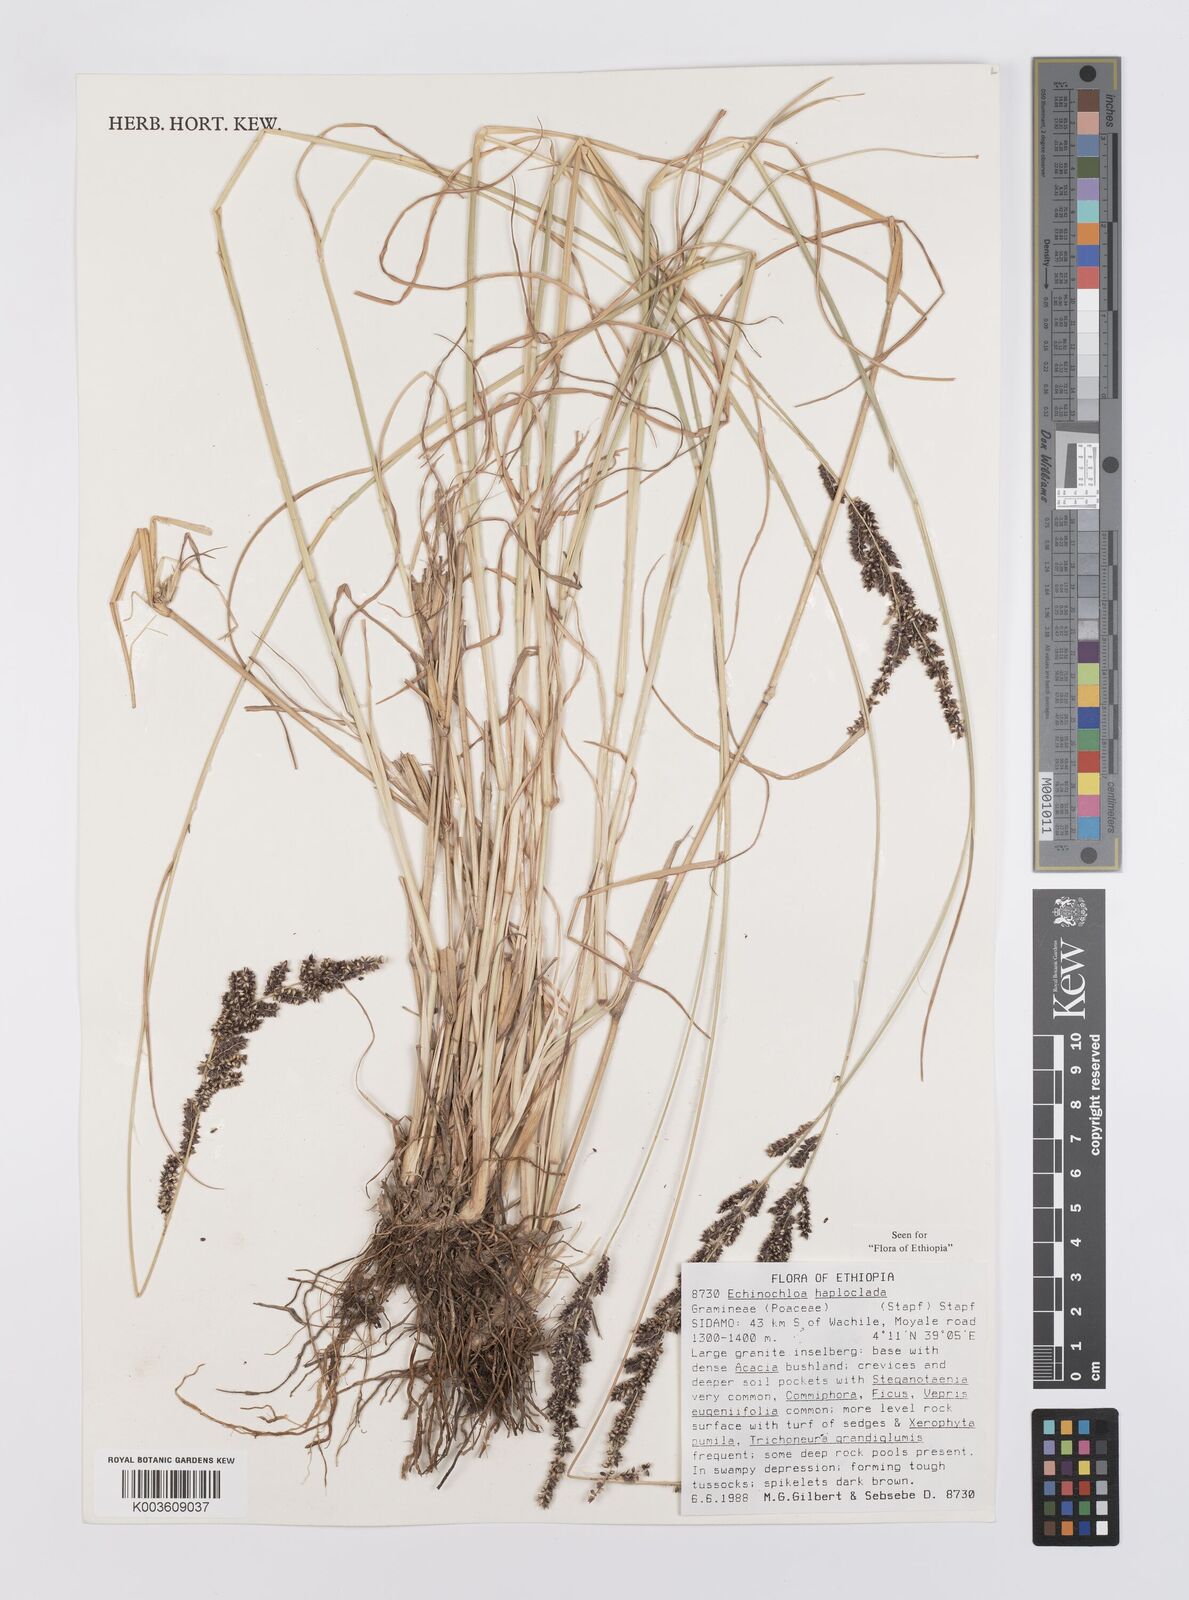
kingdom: Plantae
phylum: Tracheophyta
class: Liliopsida
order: Poales
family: Poaceae
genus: Echinochloa
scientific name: Echinochloa haploclada
